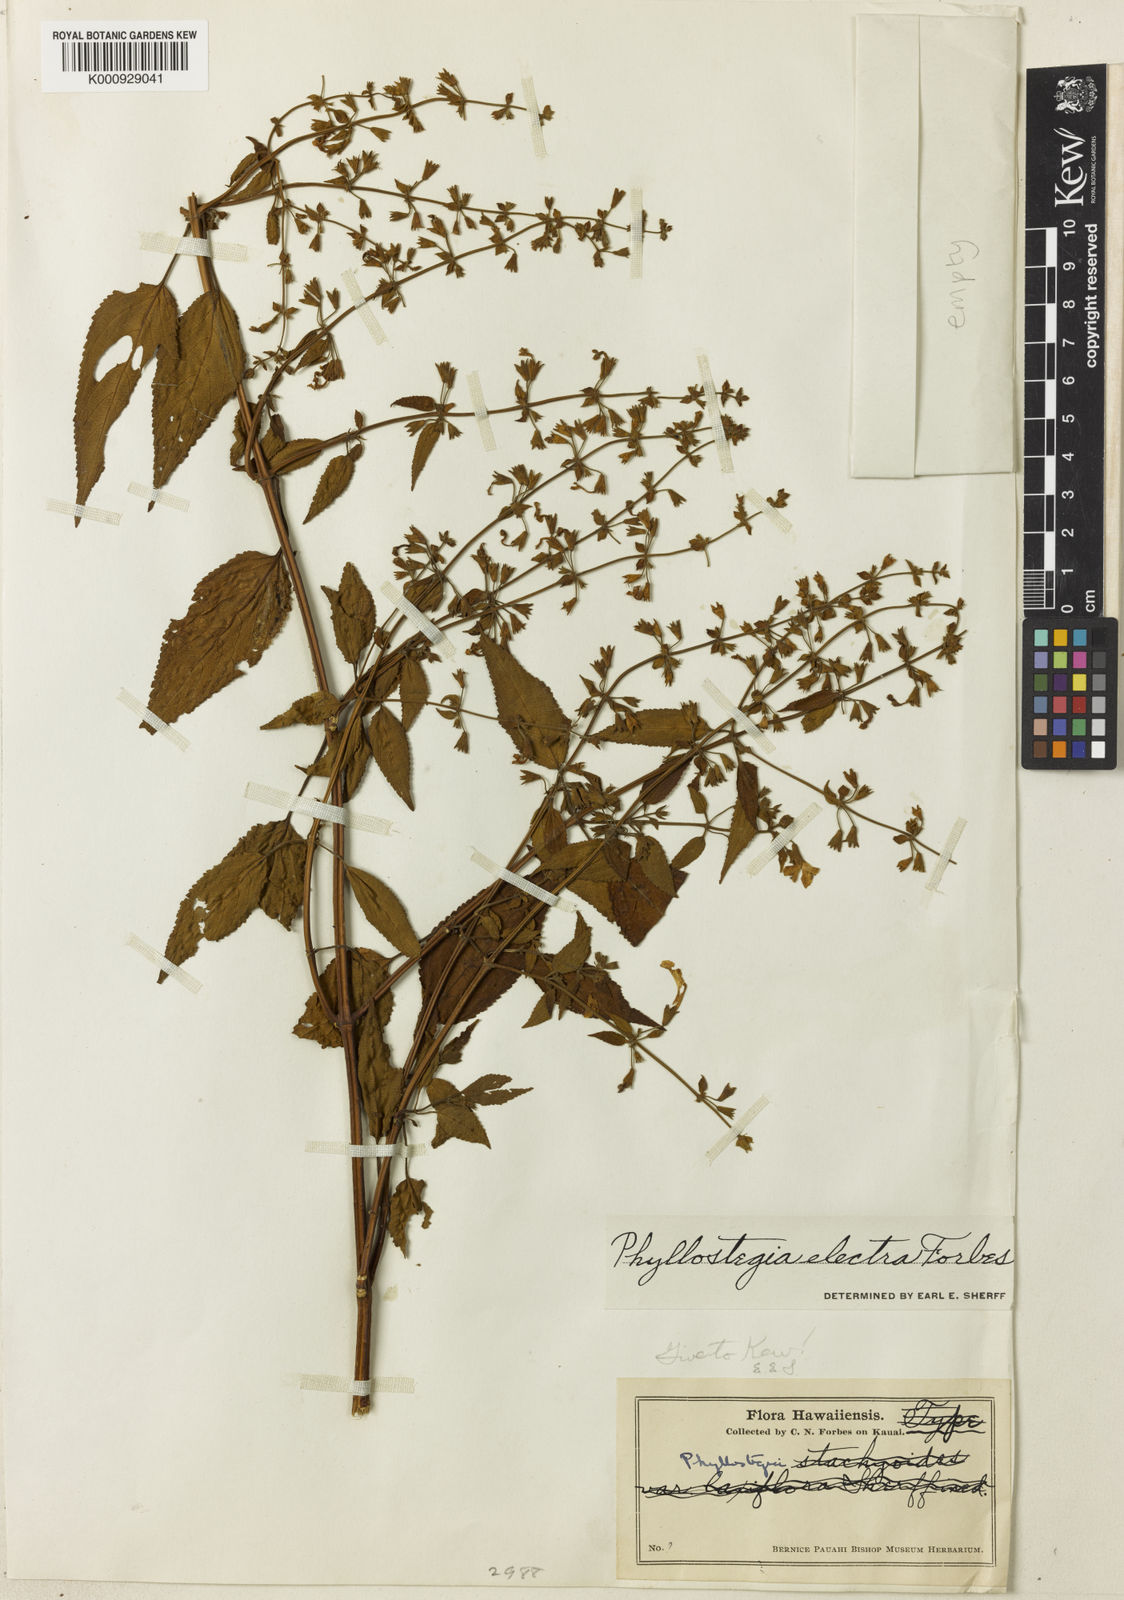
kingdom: Plantae
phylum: Tracheophyta
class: Magnoliopsida
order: Lamiales
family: Lamiaceae
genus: Phyllostegia
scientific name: Phyllostegia electra
